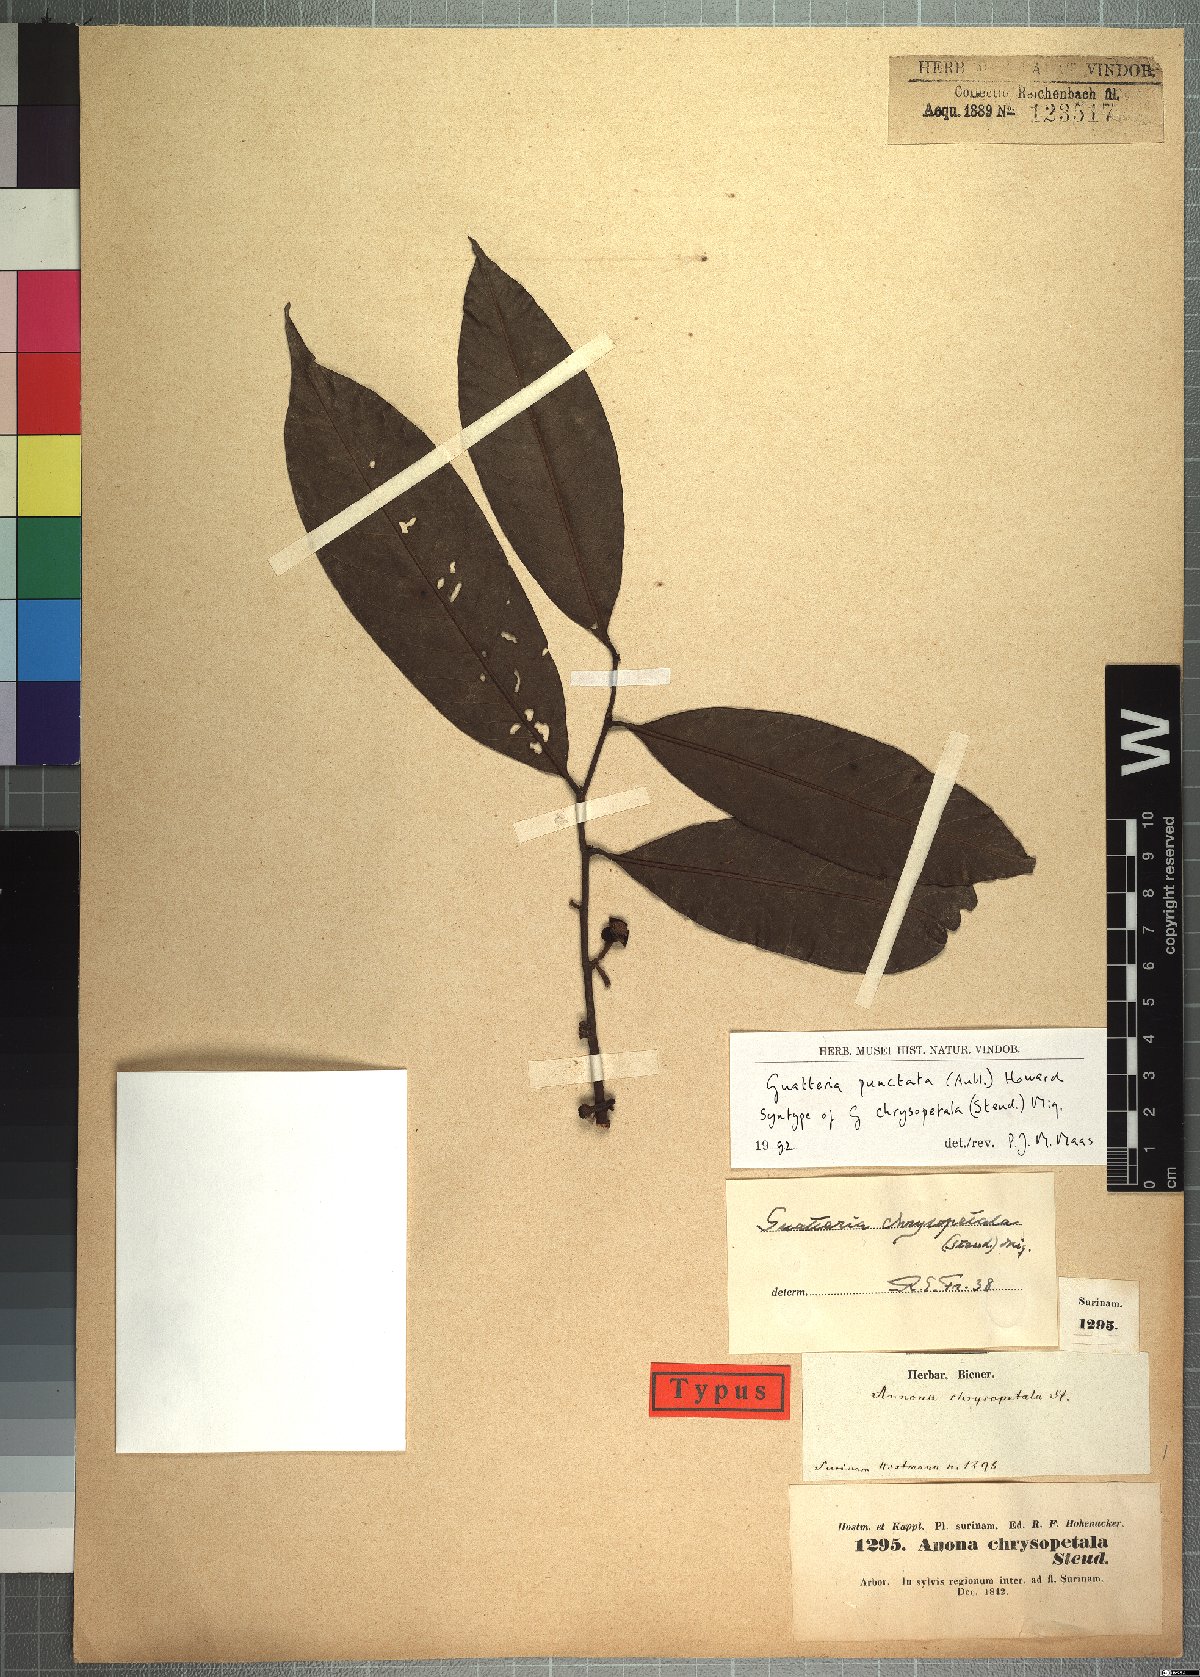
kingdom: Plantae
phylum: Tracheophyta
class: Magnoliopsida
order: Magnoliales
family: Annonaceae
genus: Guatteria
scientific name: Guatteria punctata
